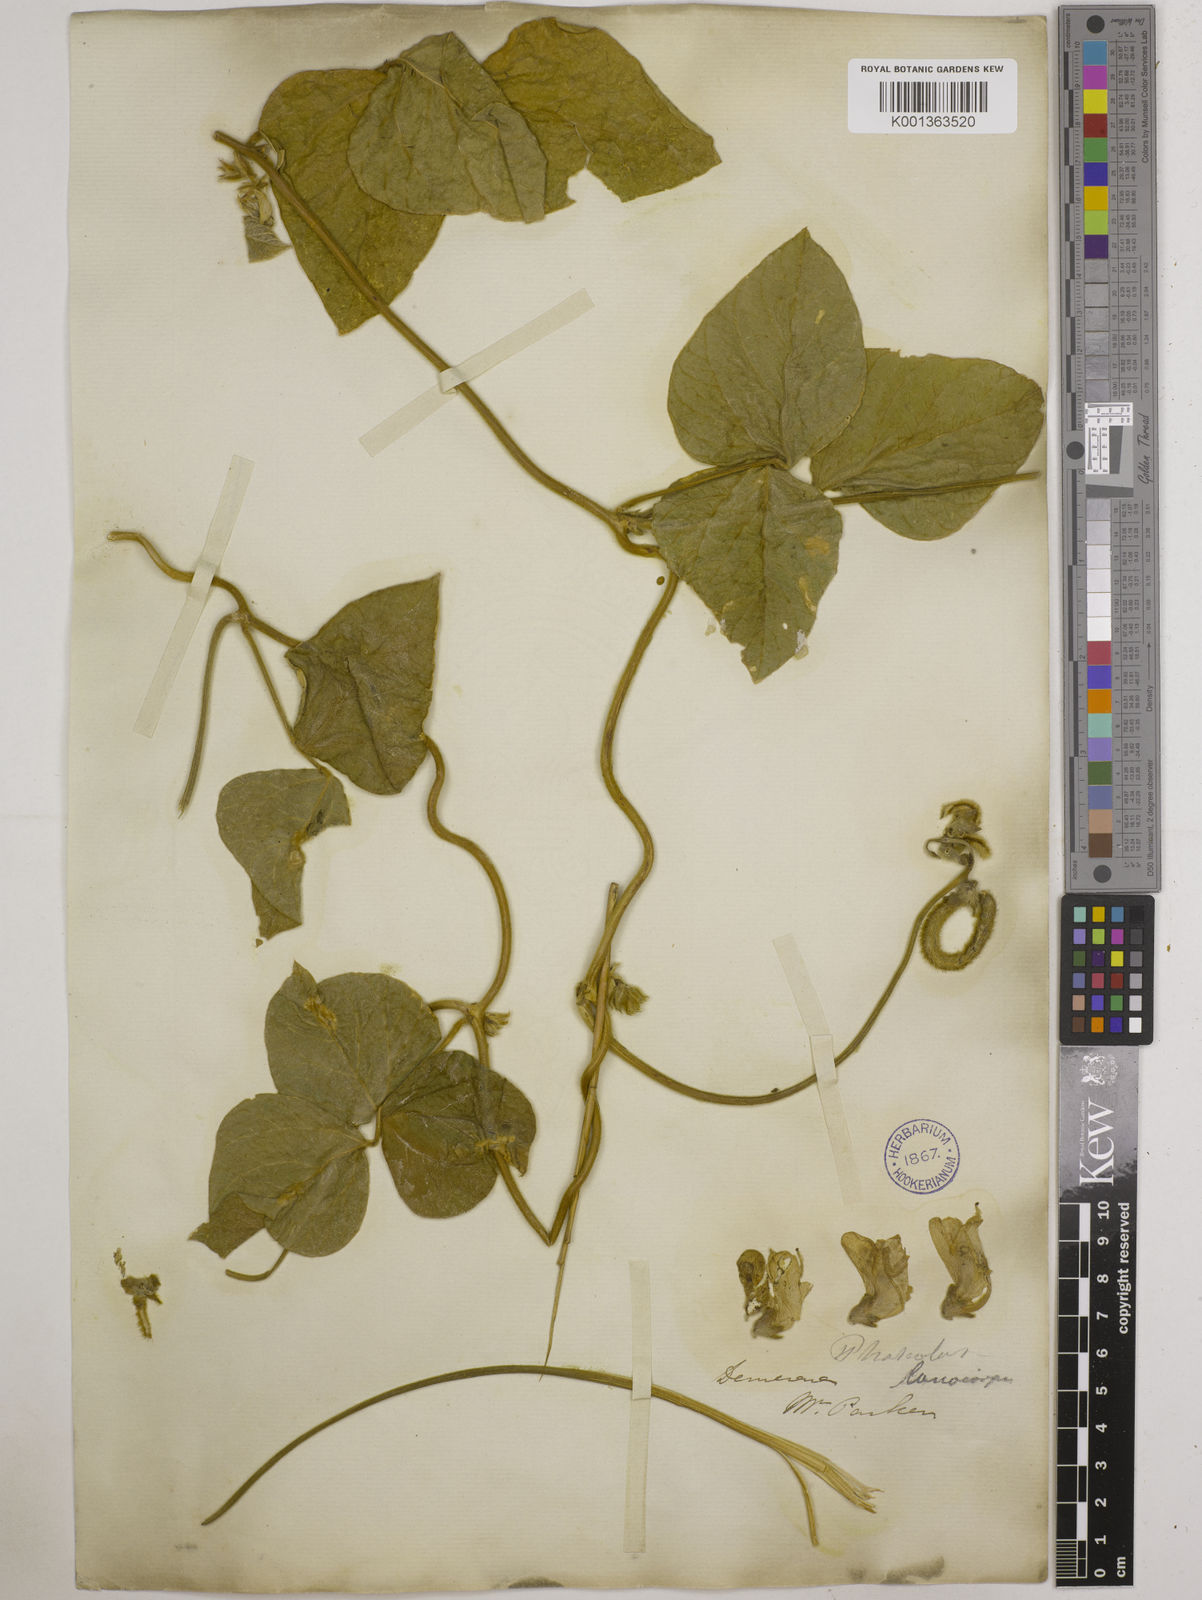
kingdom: Plantae
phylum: Tracheophyta
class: Magnoliopsida
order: Fabales
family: Fabaceae
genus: Vigna
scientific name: Vigna lasiocarpa
